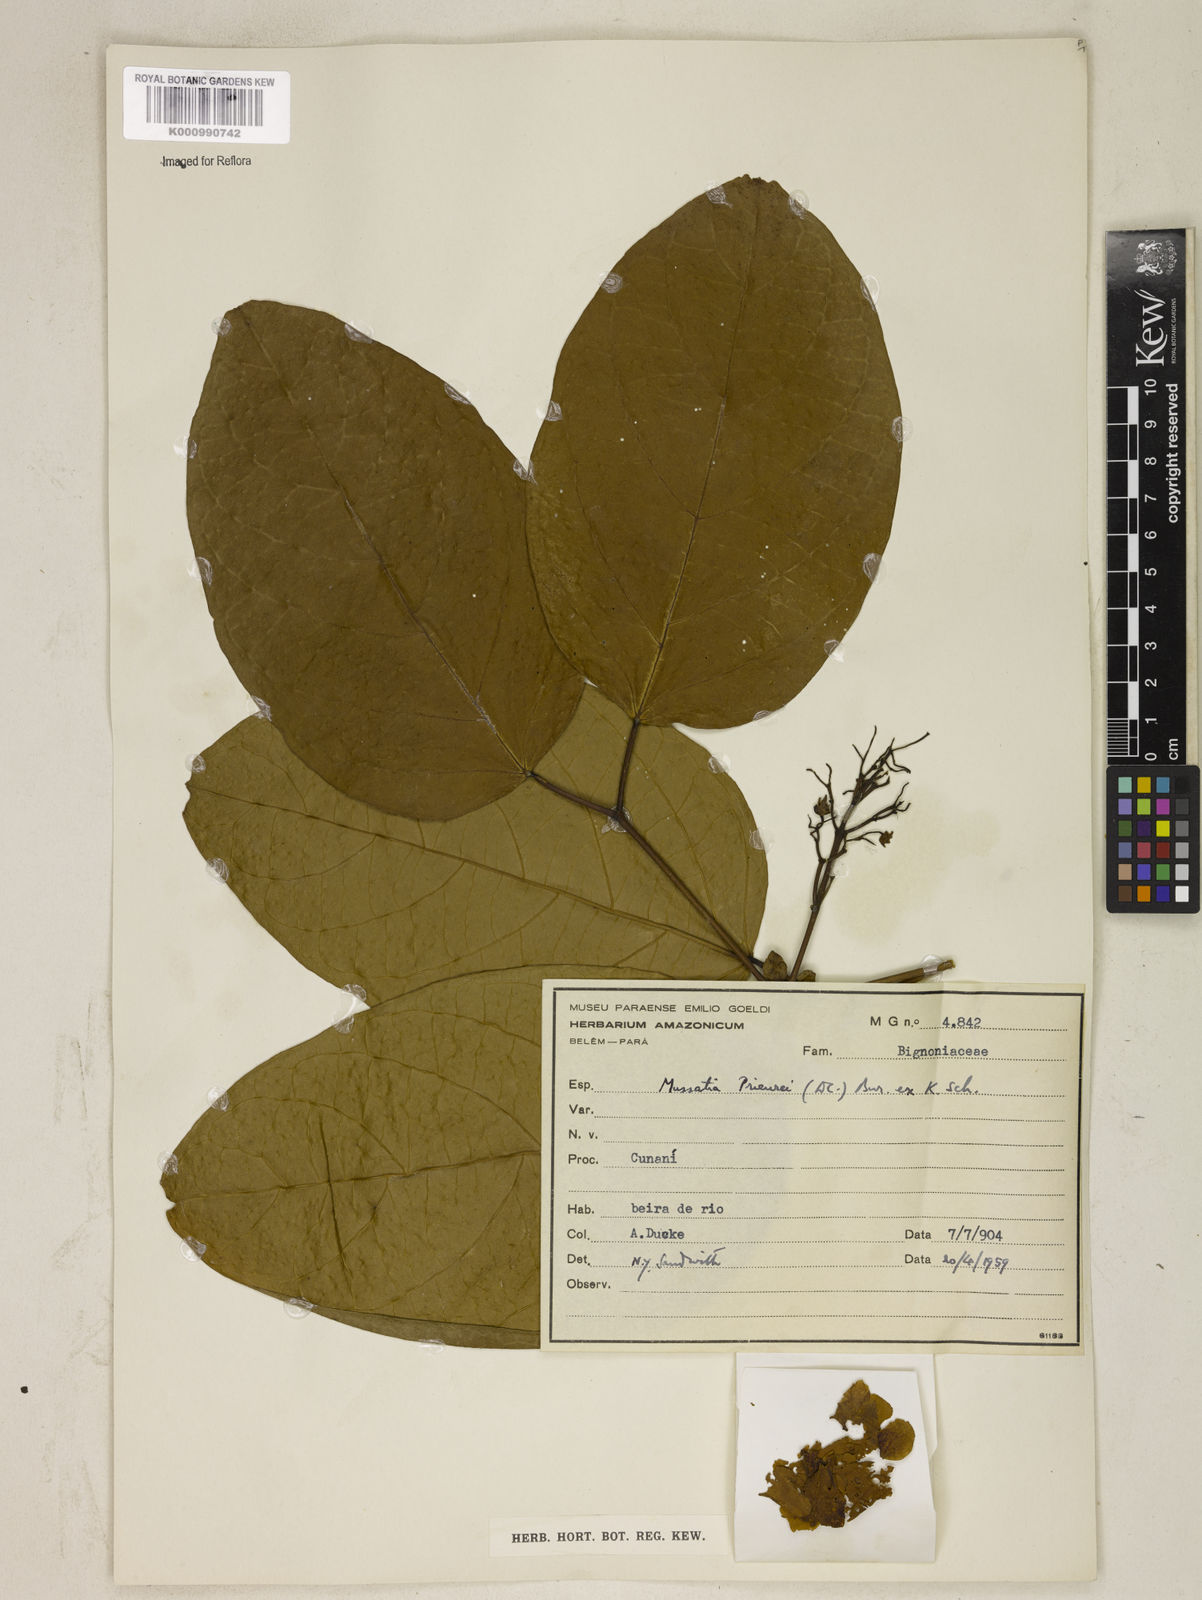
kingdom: Plantae
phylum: Tracheophyta
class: Magnoliopsida
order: Lamiales
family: Bignoniaceae
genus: Mussatia
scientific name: Mussatia
